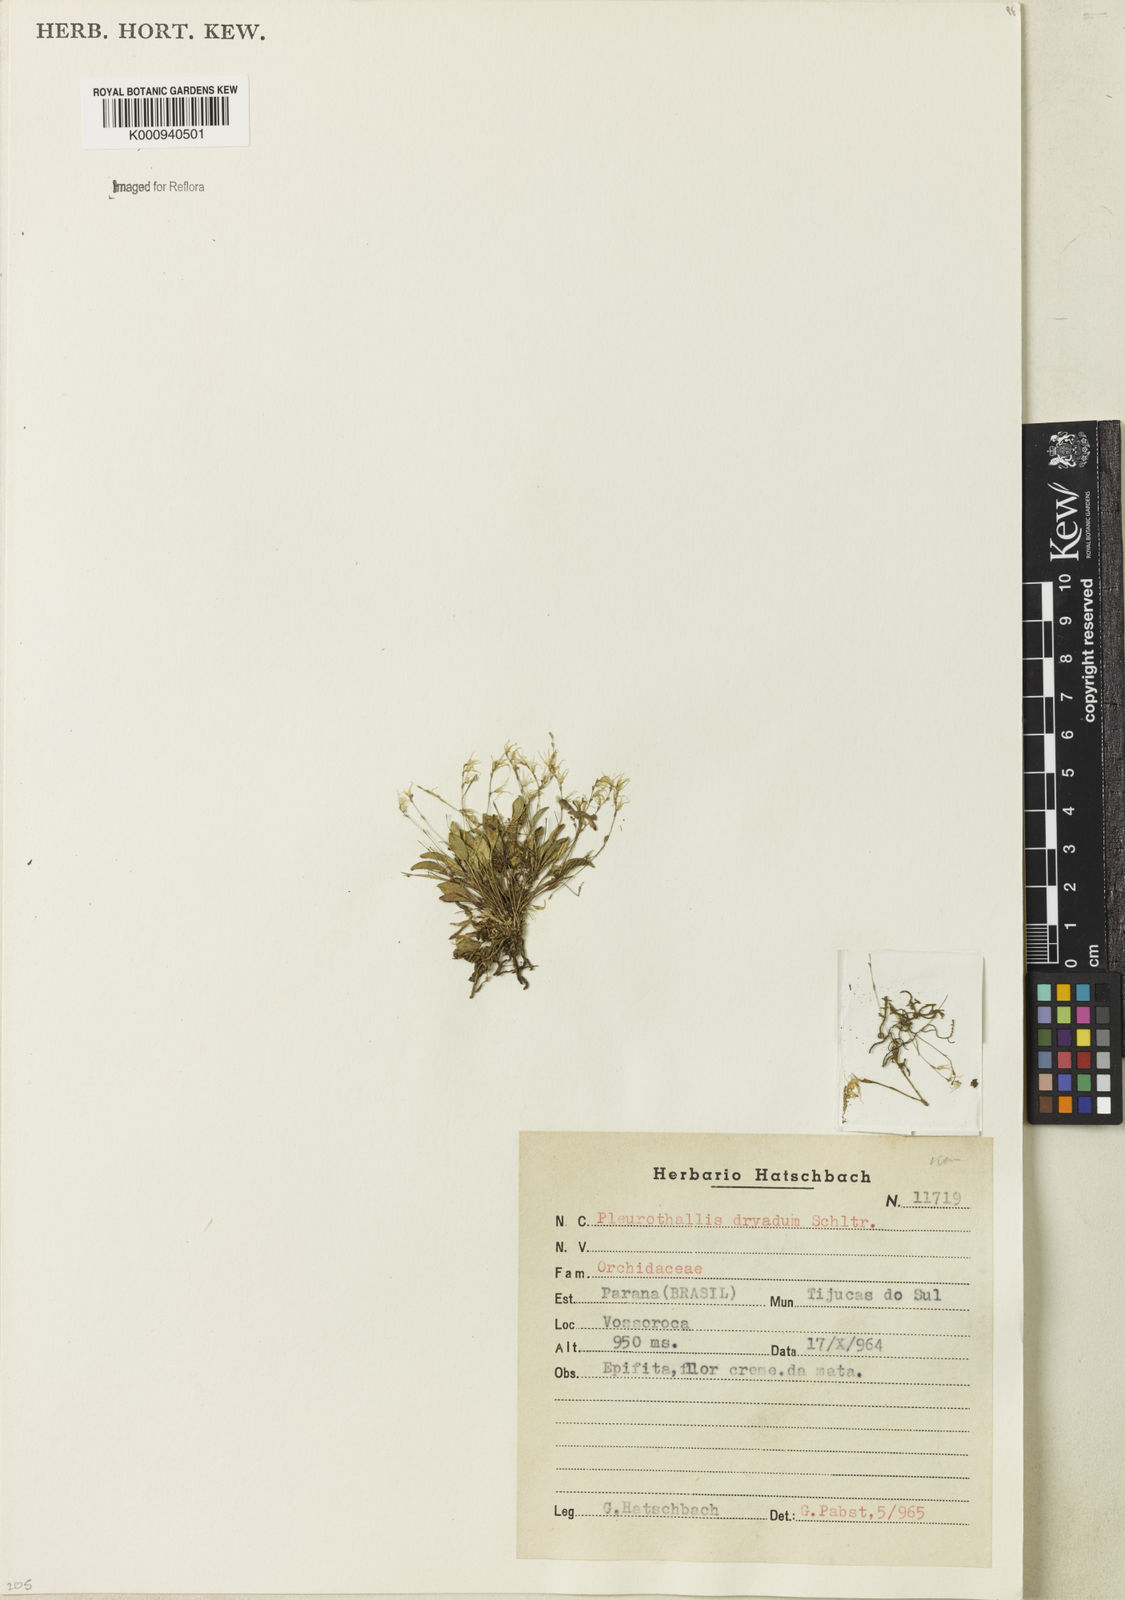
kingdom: Plantae
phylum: Tracheophyta
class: Liliopsida
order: Asparagales
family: Orchidaceae
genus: Anathallis
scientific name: Anathallis dryadum
